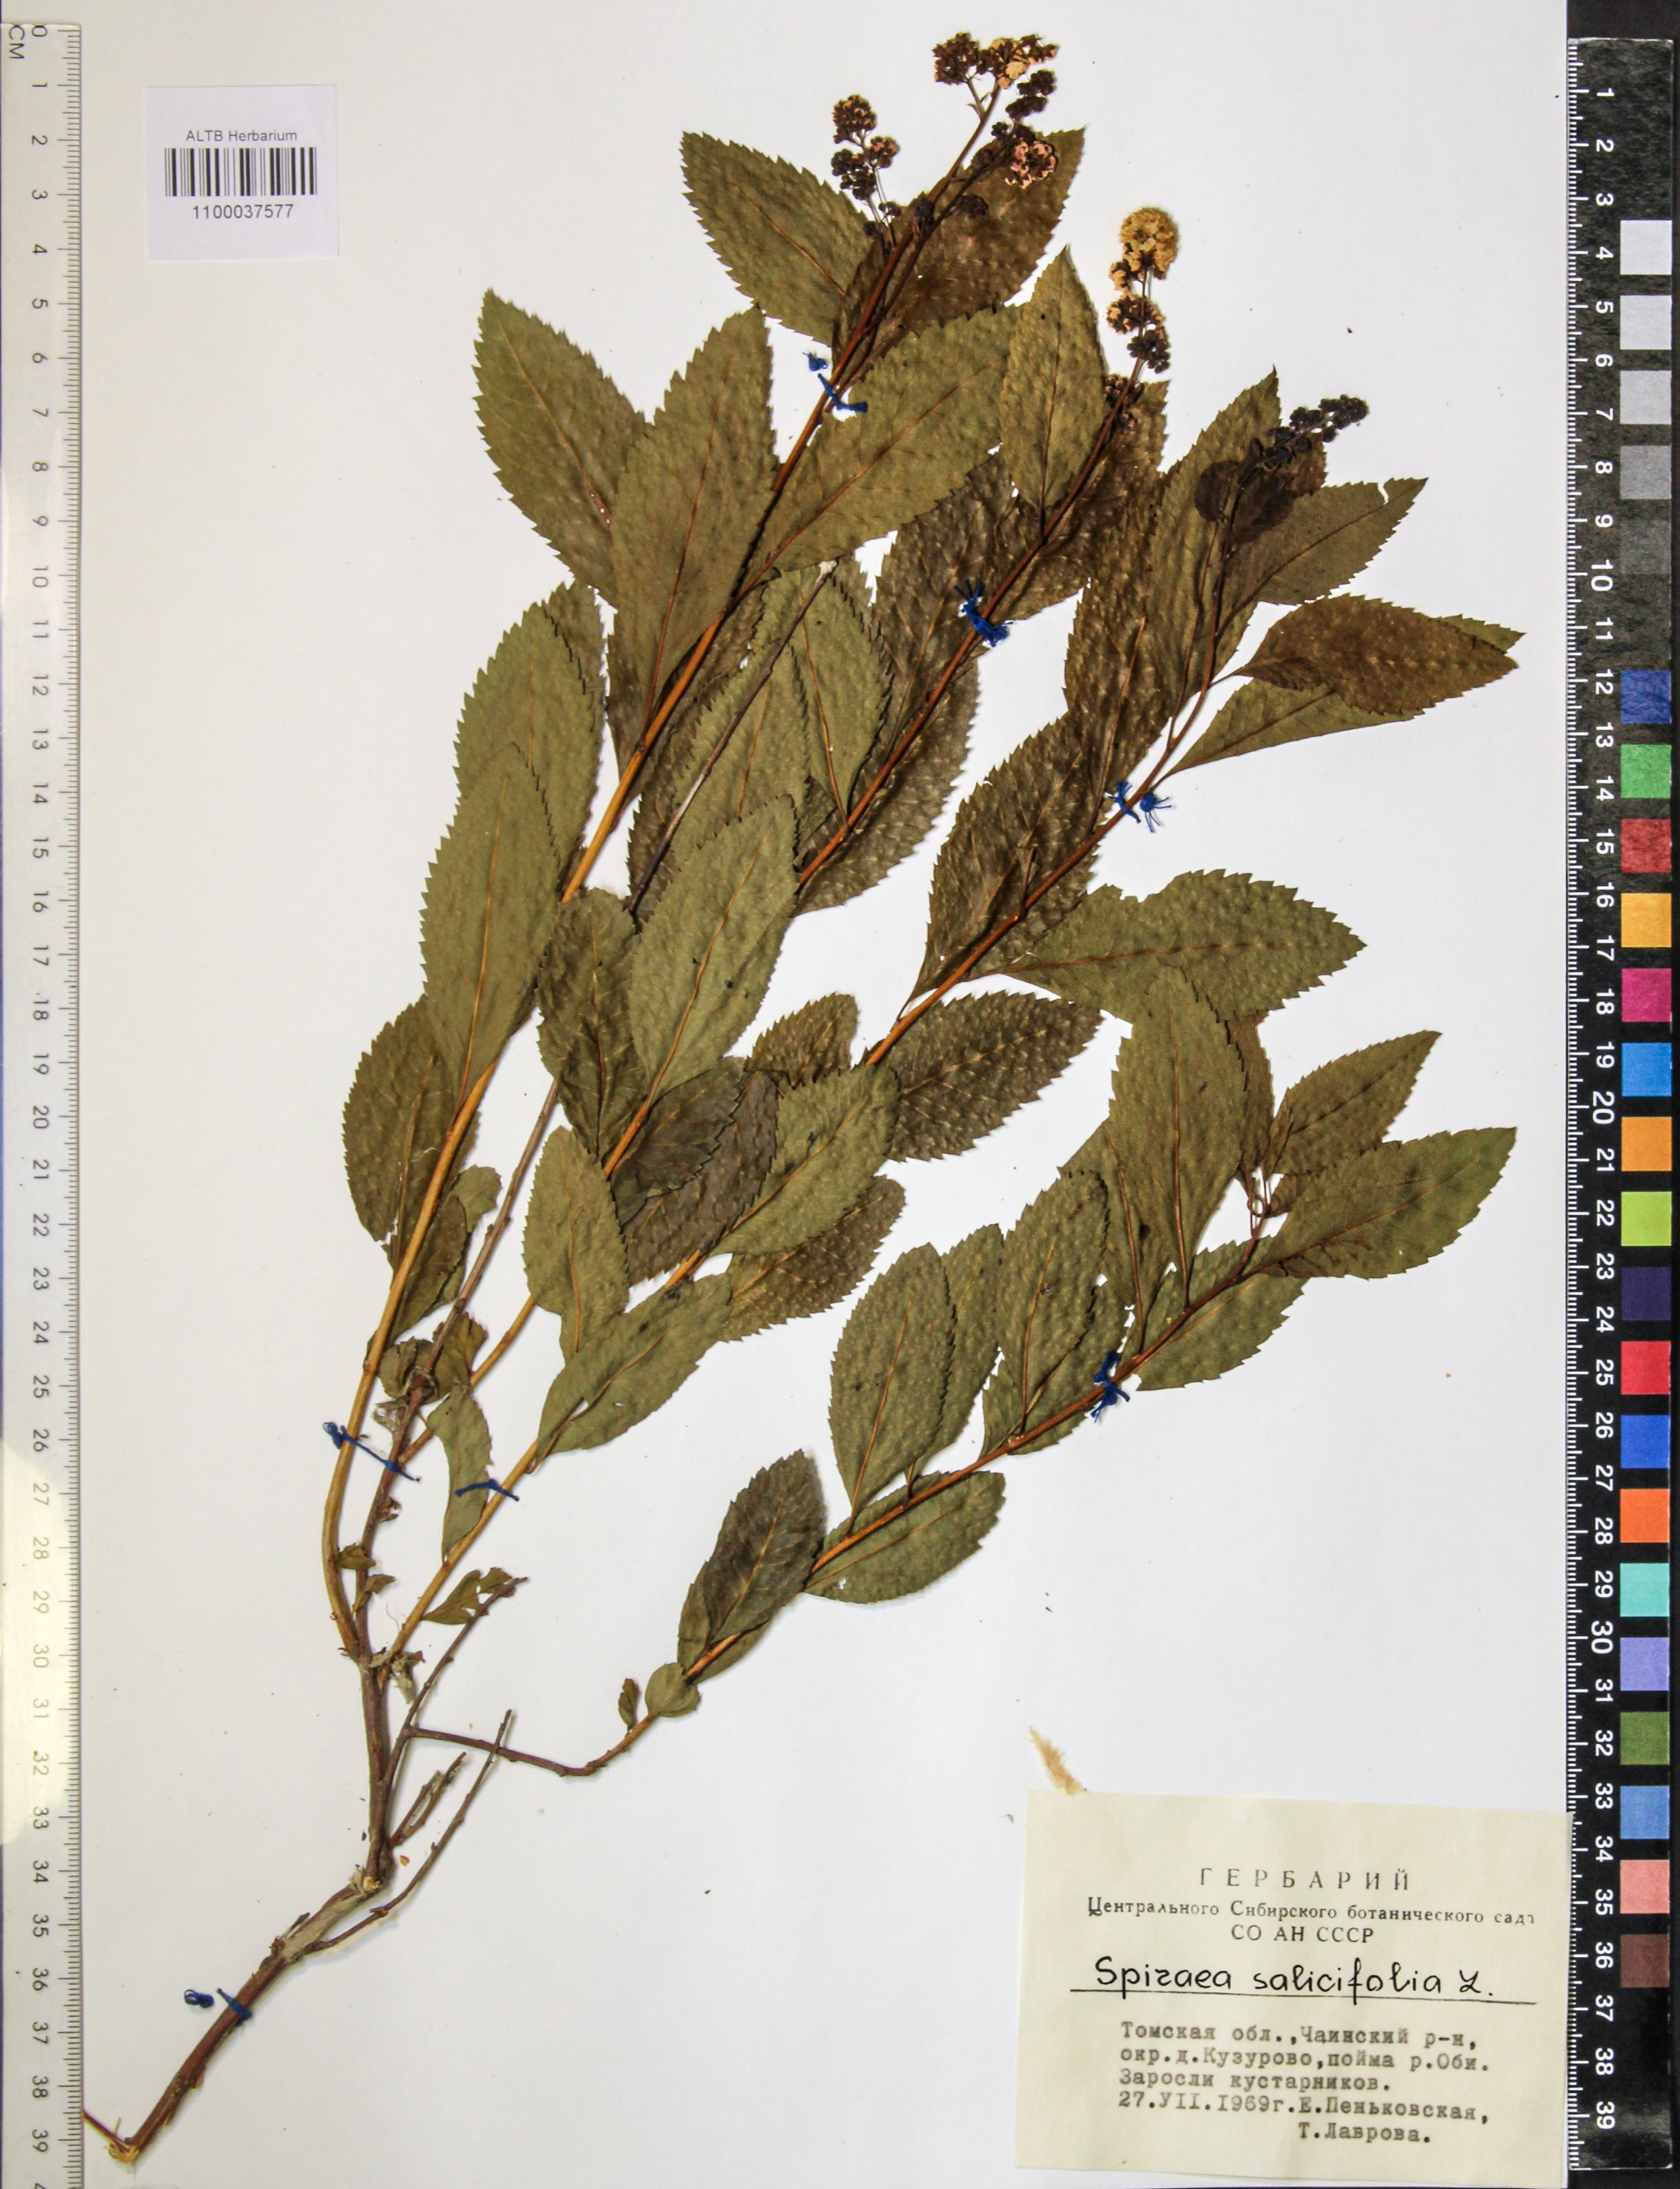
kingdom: Plantae
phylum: Tracheophyta
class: Magnoliopsida
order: Rosales
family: Rosaceae
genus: Spiraea
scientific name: Spiraea salicifolia
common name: Bridewort
